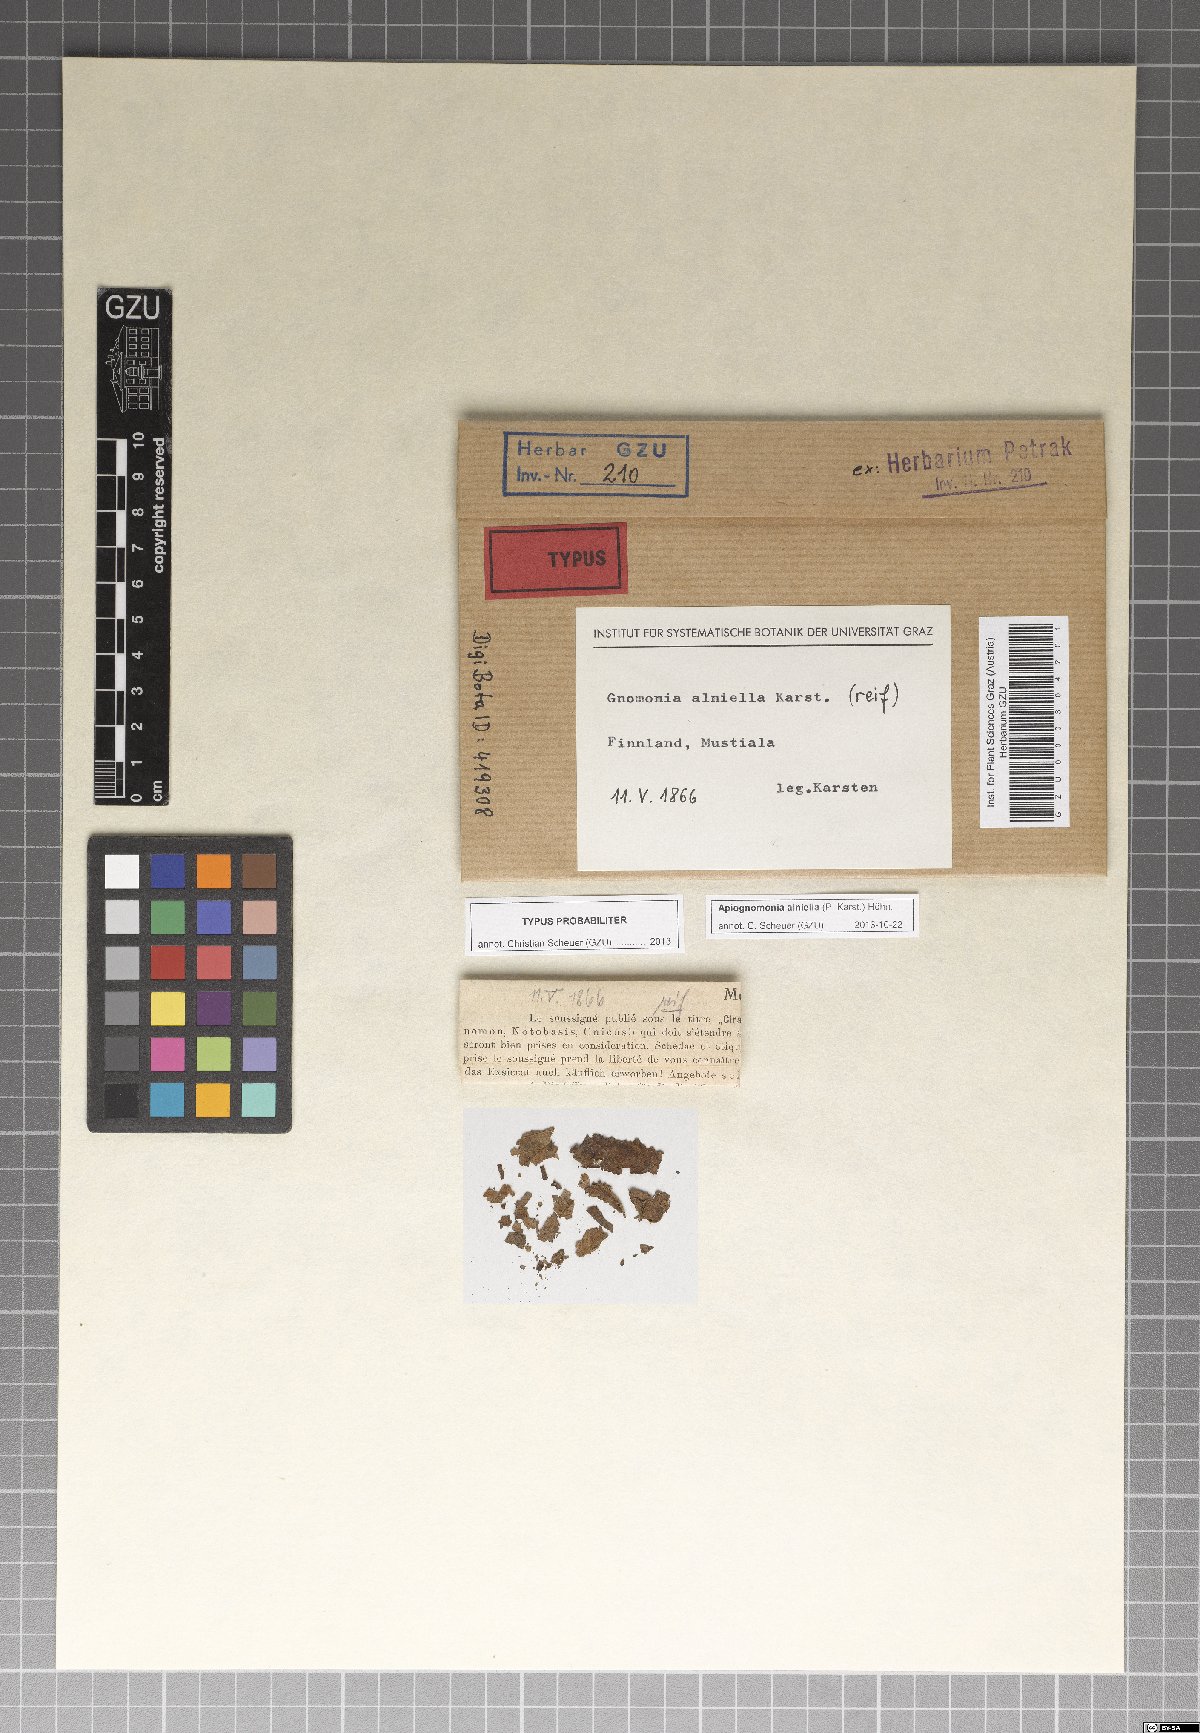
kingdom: Fungi
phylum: Ascomycota
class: Sordariomycetes
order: Diaporthales
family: Gnomoniaceae
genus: Apiognomonia
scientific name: Apiognomonia alniella
